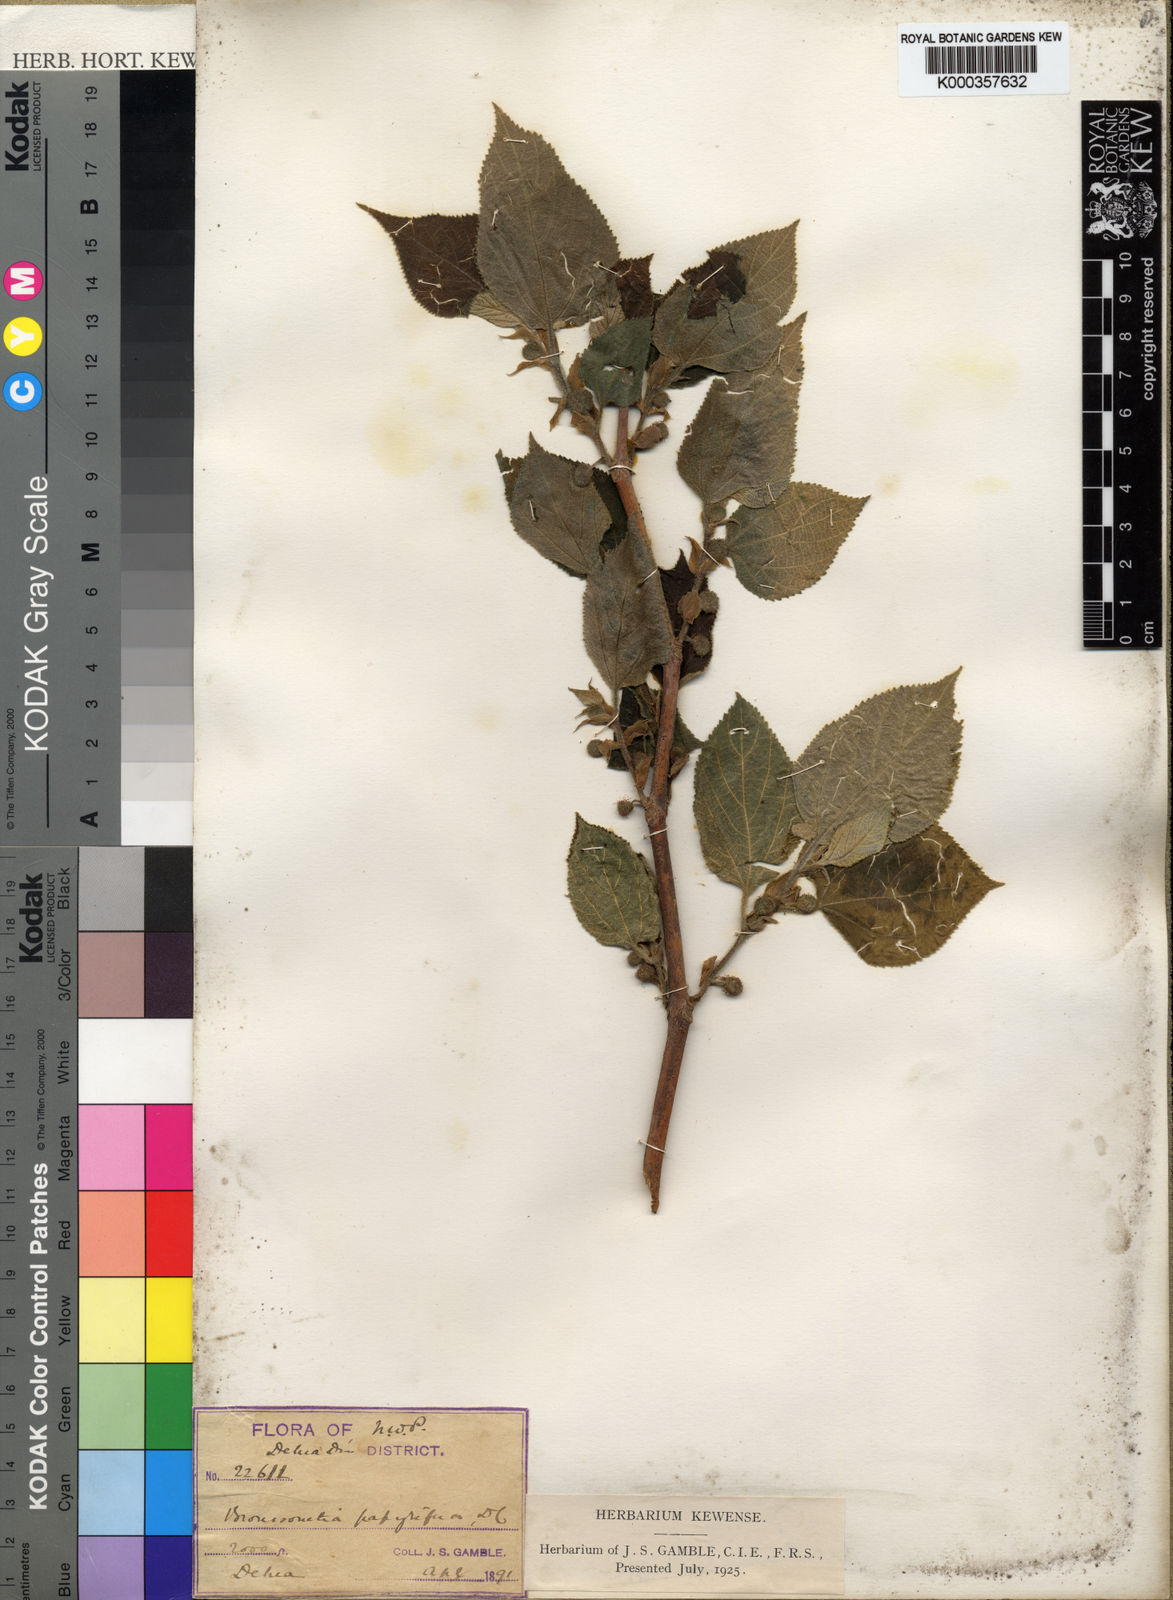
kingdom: Plantae
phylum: Tracheophyta
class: Magnoliopsida
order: Rosales
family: Moraceae
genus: Broussonetia
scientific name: Broussonetia papyrifera
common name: Paper mulberry
